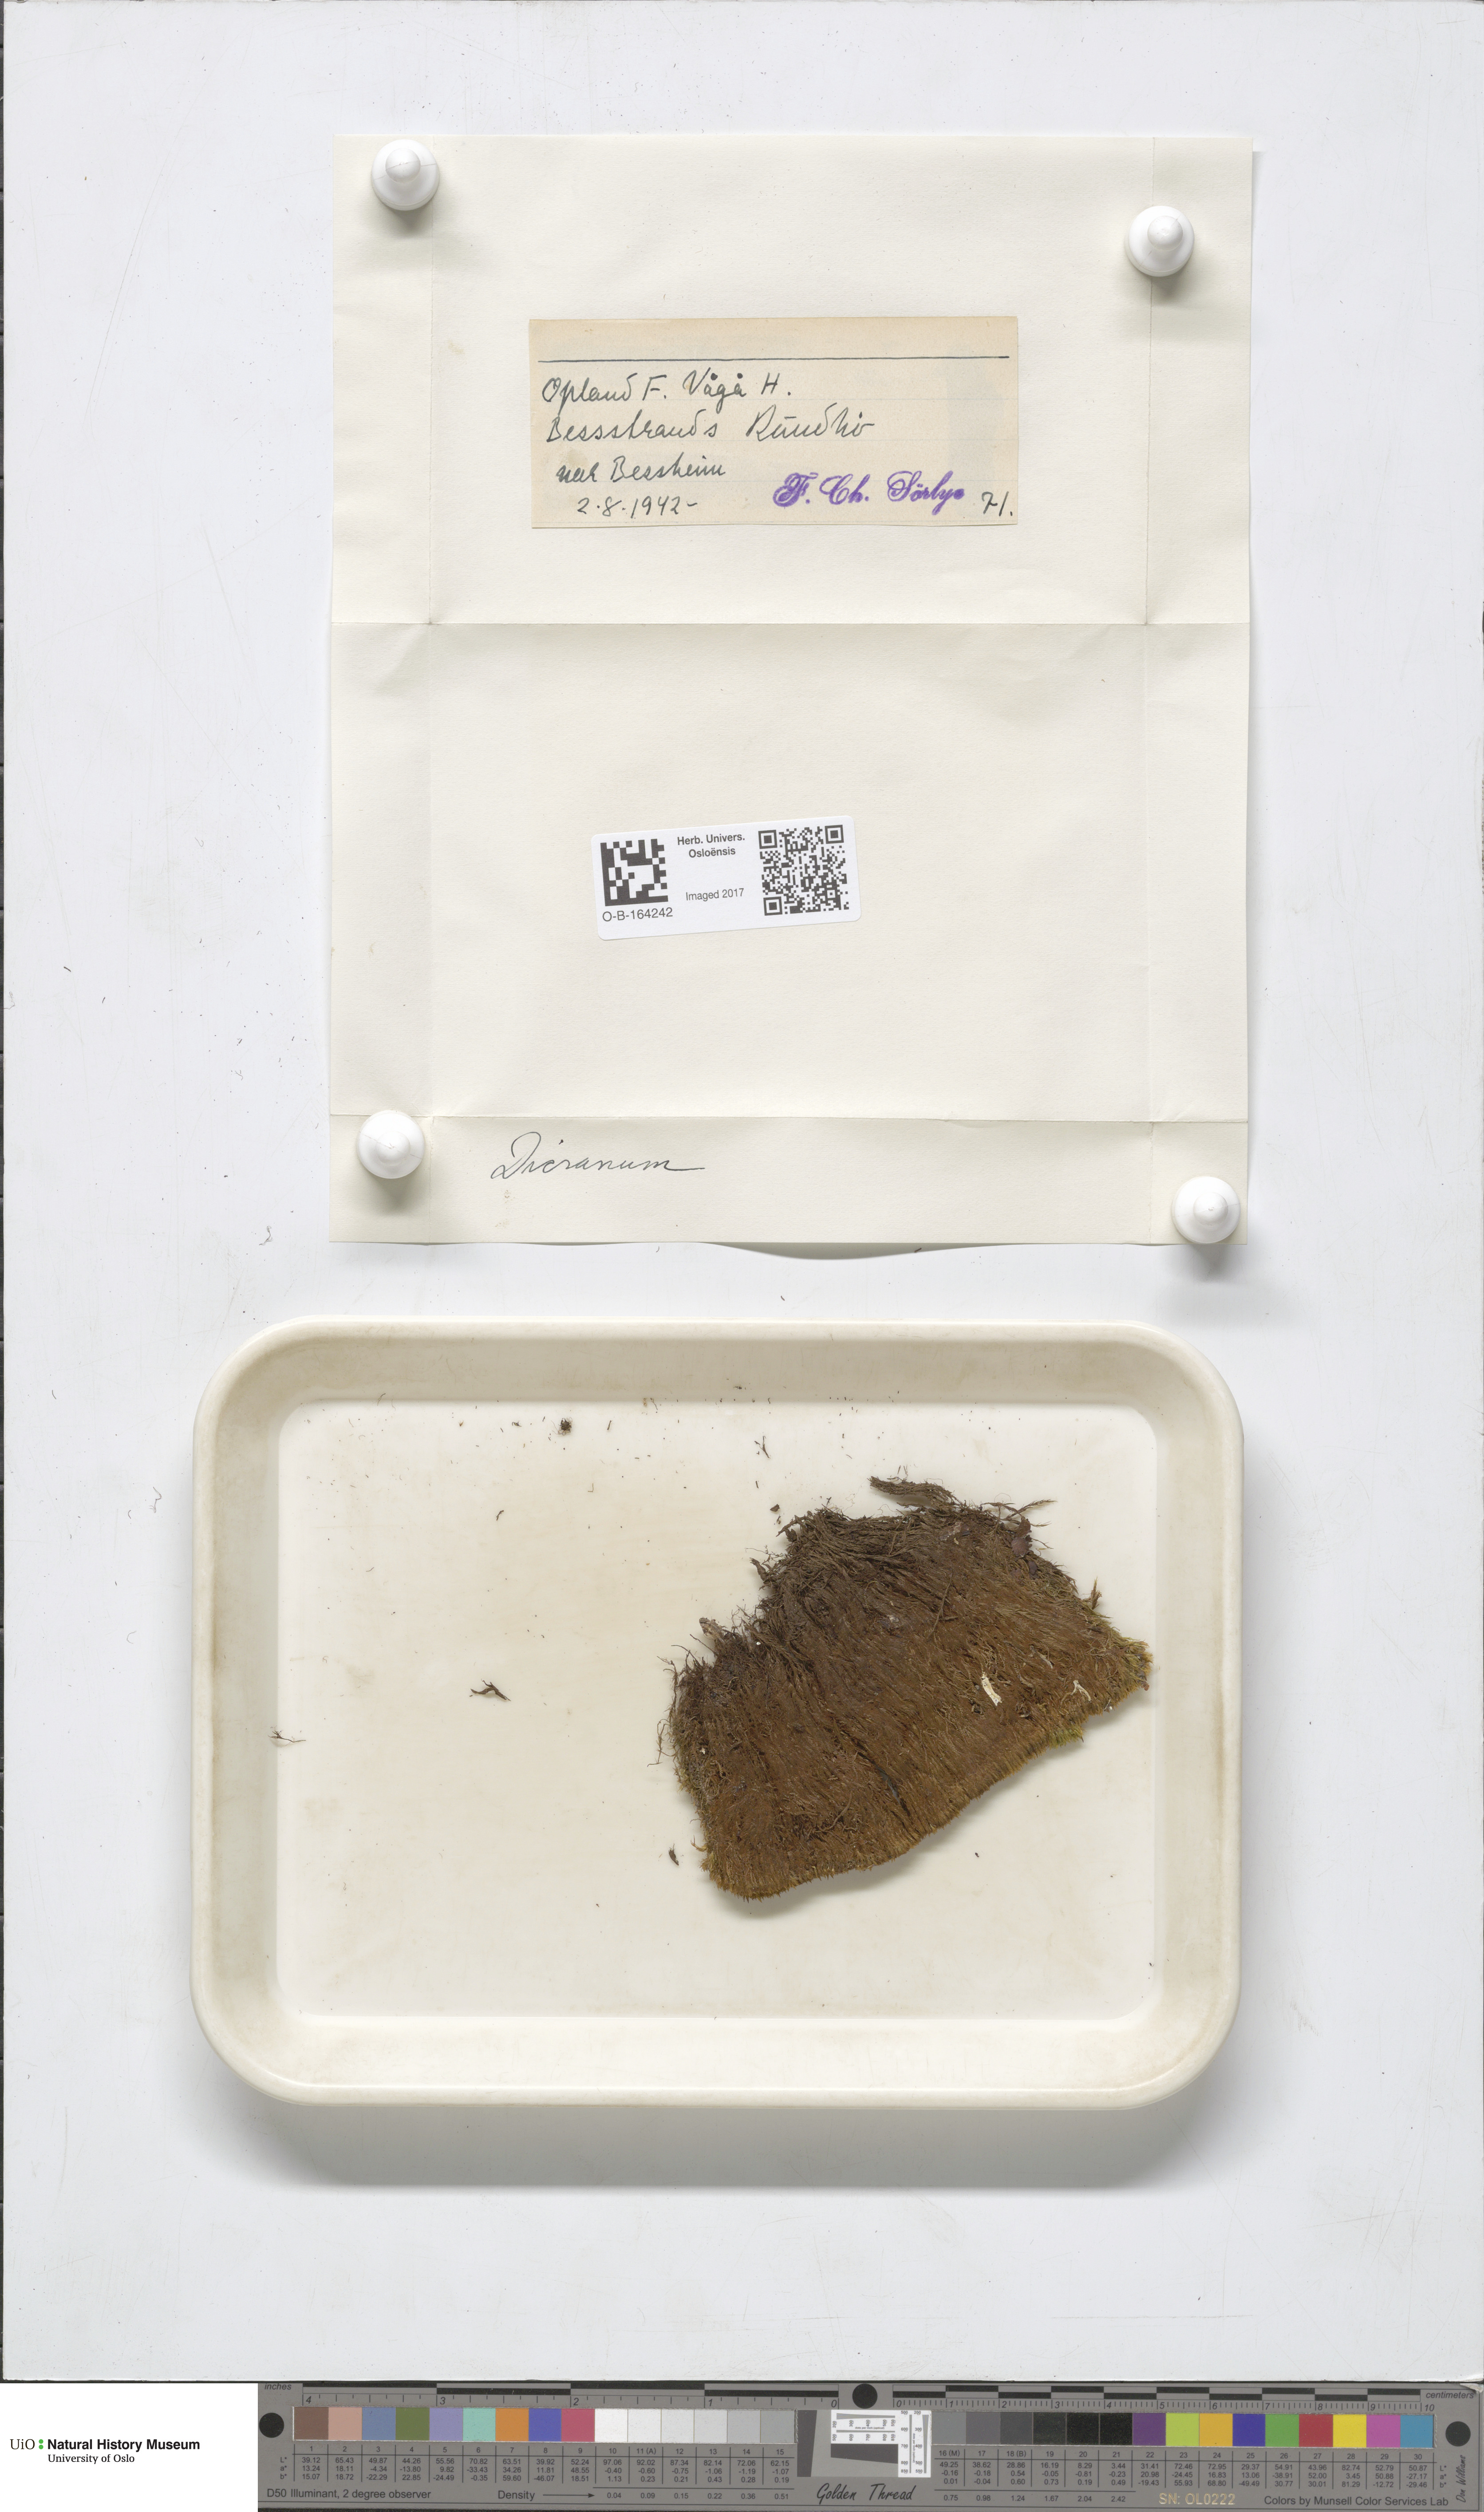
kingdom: Plantae
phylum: Bryophyta
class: Bryopsida
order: Dicranales
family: Dicranaceae
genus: Dicranum
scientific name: Dicranum
